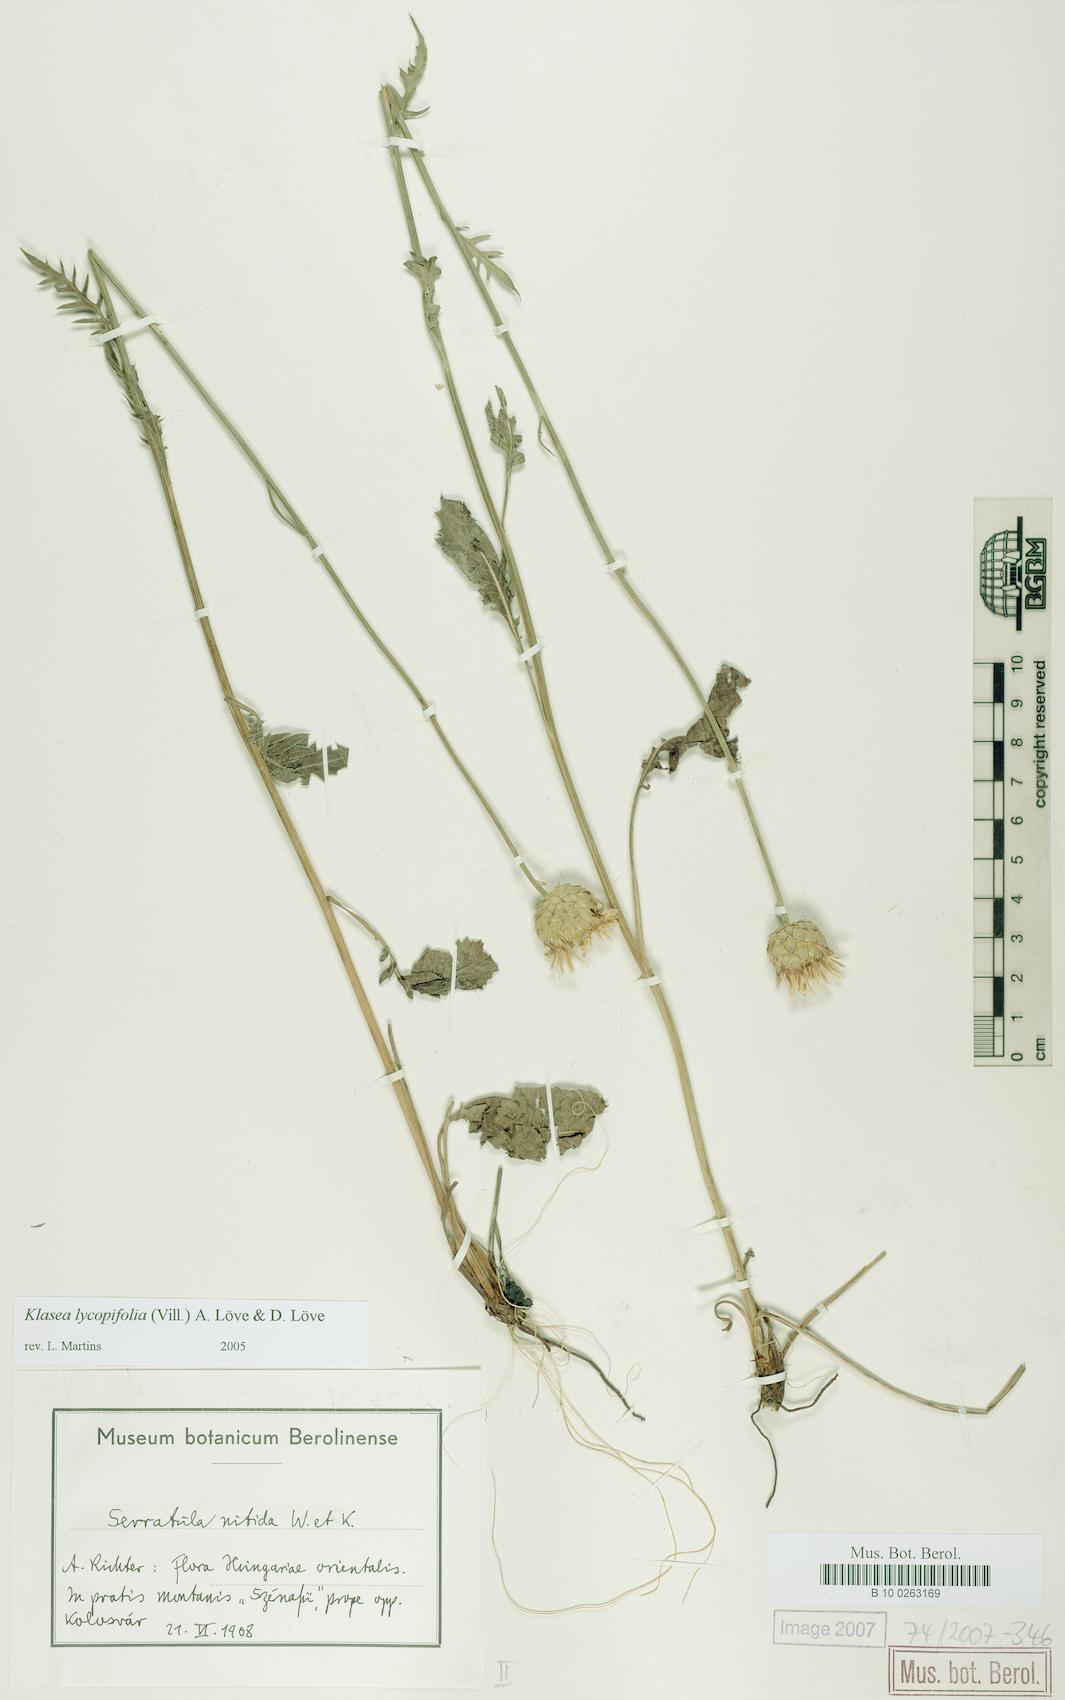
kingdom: Plantae
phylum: Tracheophyta
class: Magnoliopsida
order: Asterales
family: Asteraceae
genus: Klasea
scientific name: Klasea lycopifolia
